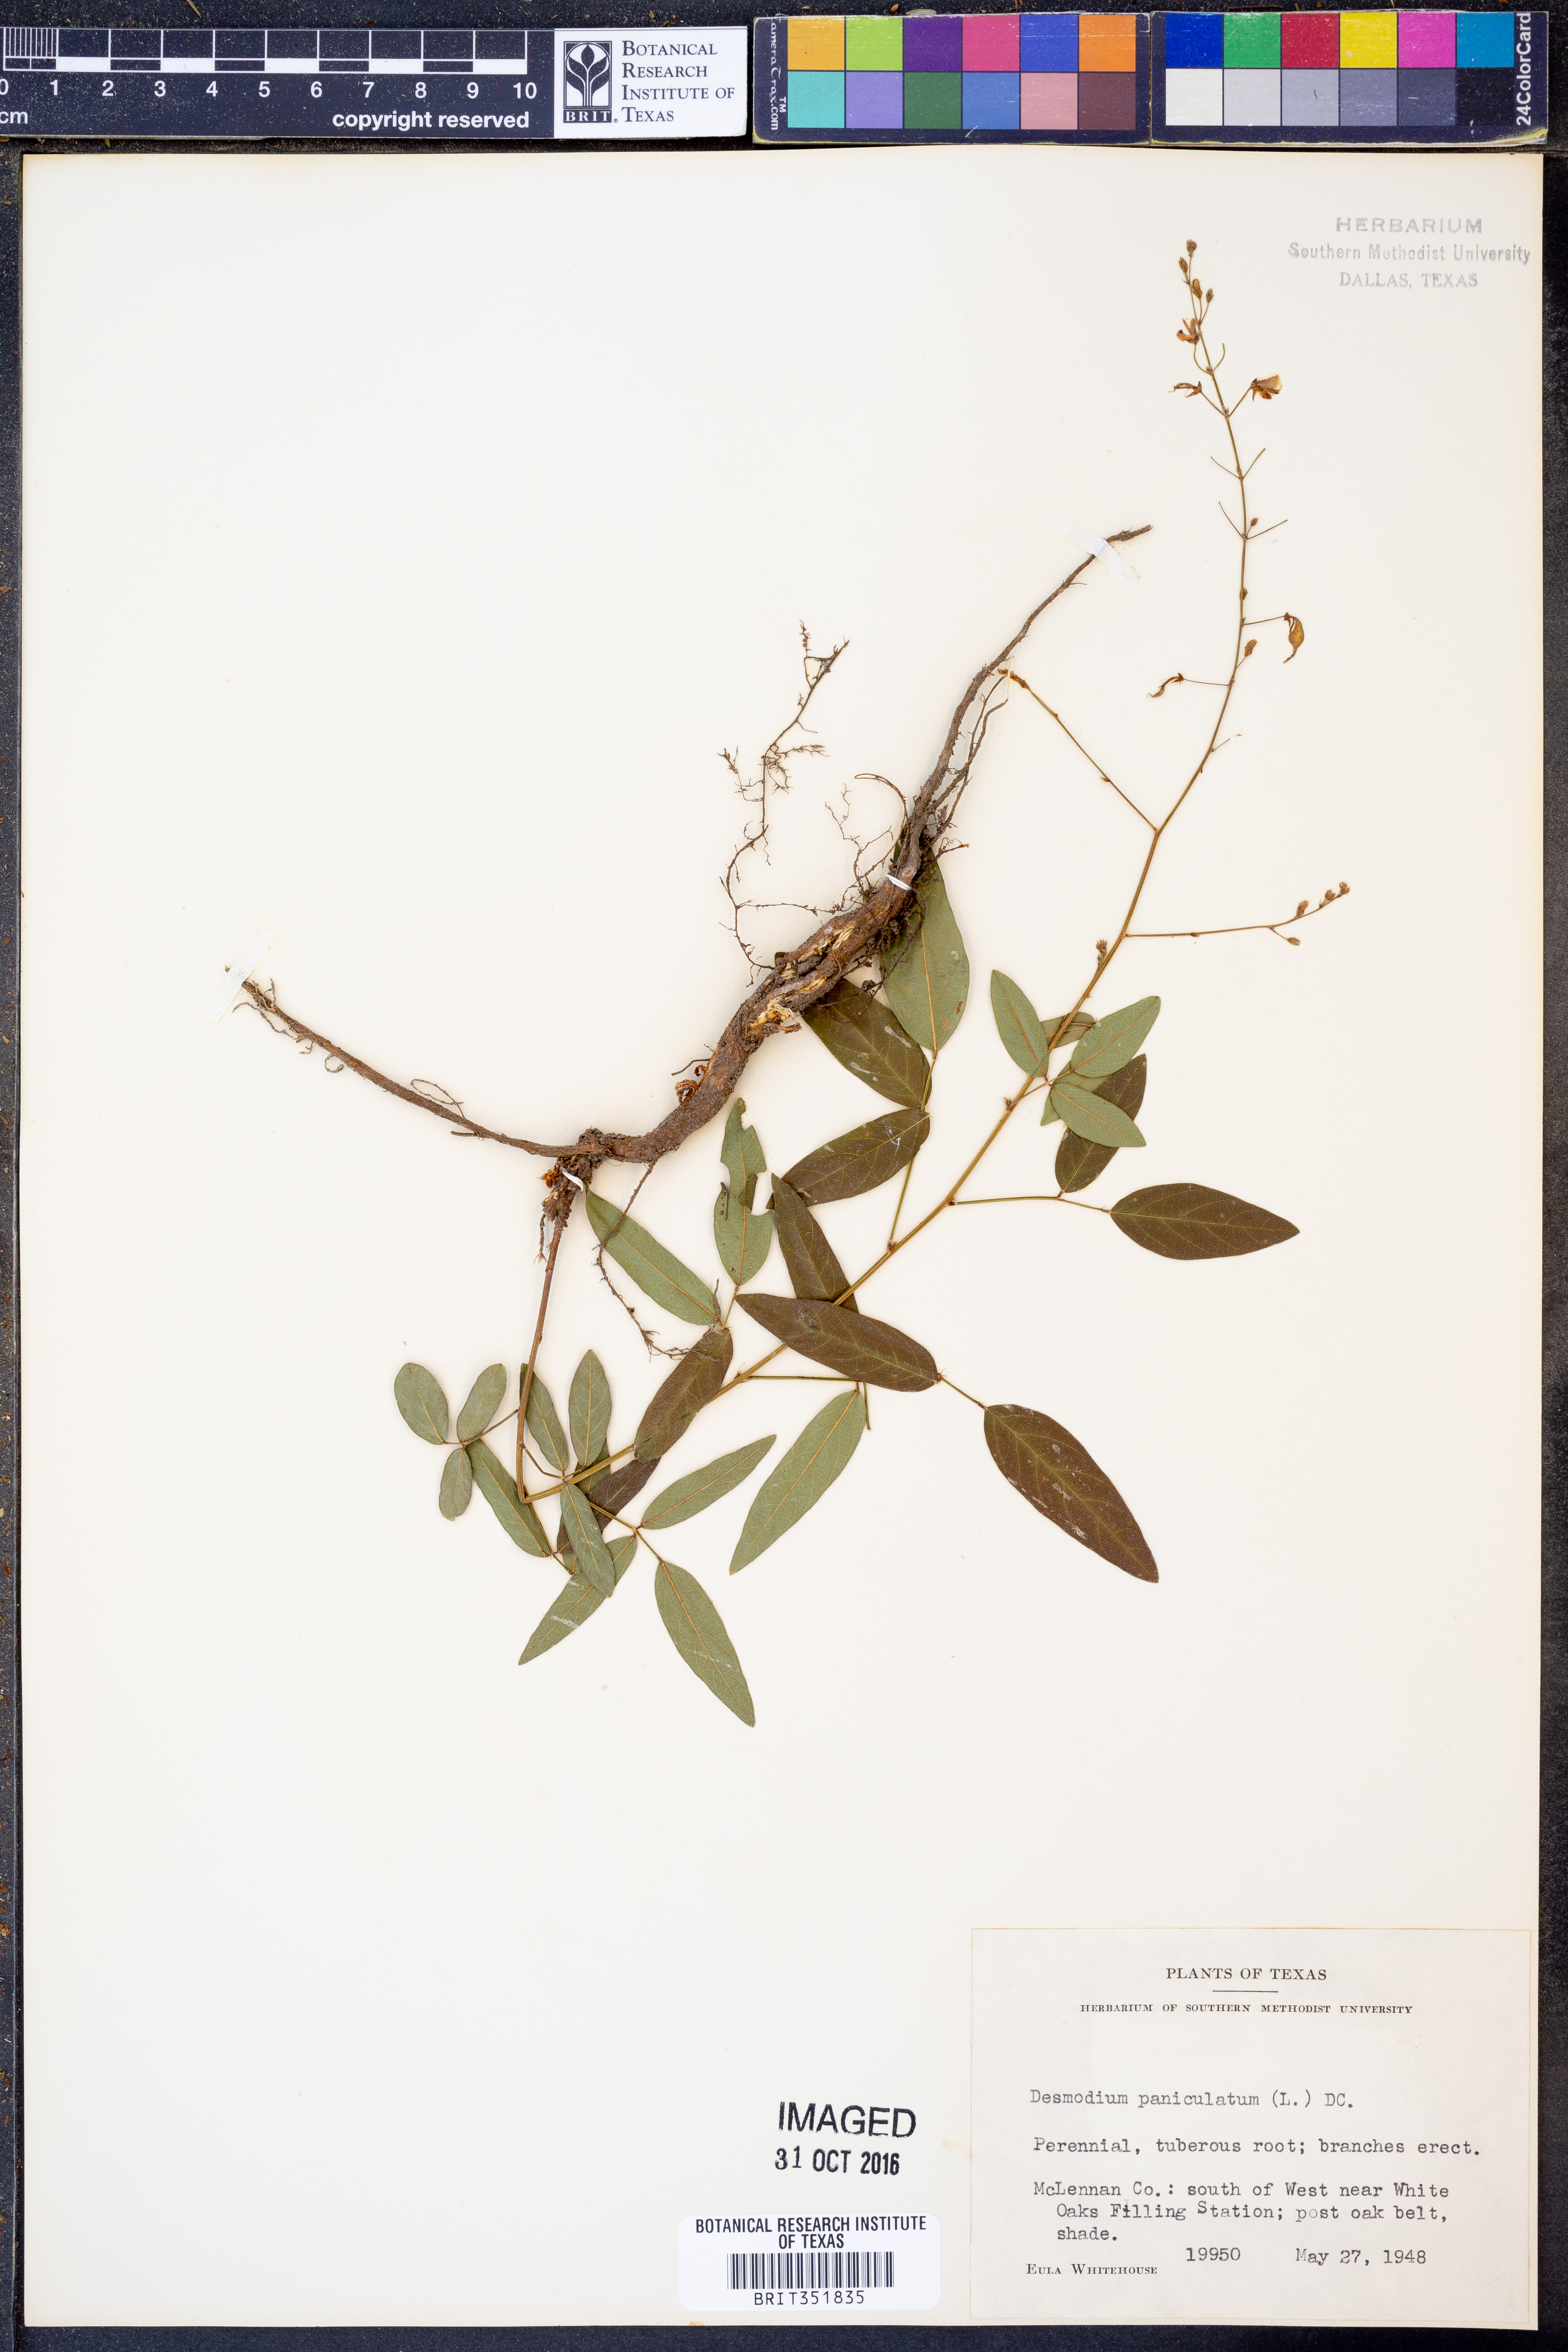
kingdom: Plantae
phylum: Tracheophyta
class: Magnoliopsida
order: Fabales
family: Fabaceae
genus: Desmodium
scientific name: Desmodium paniculatum
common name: Panicled tick-clover
